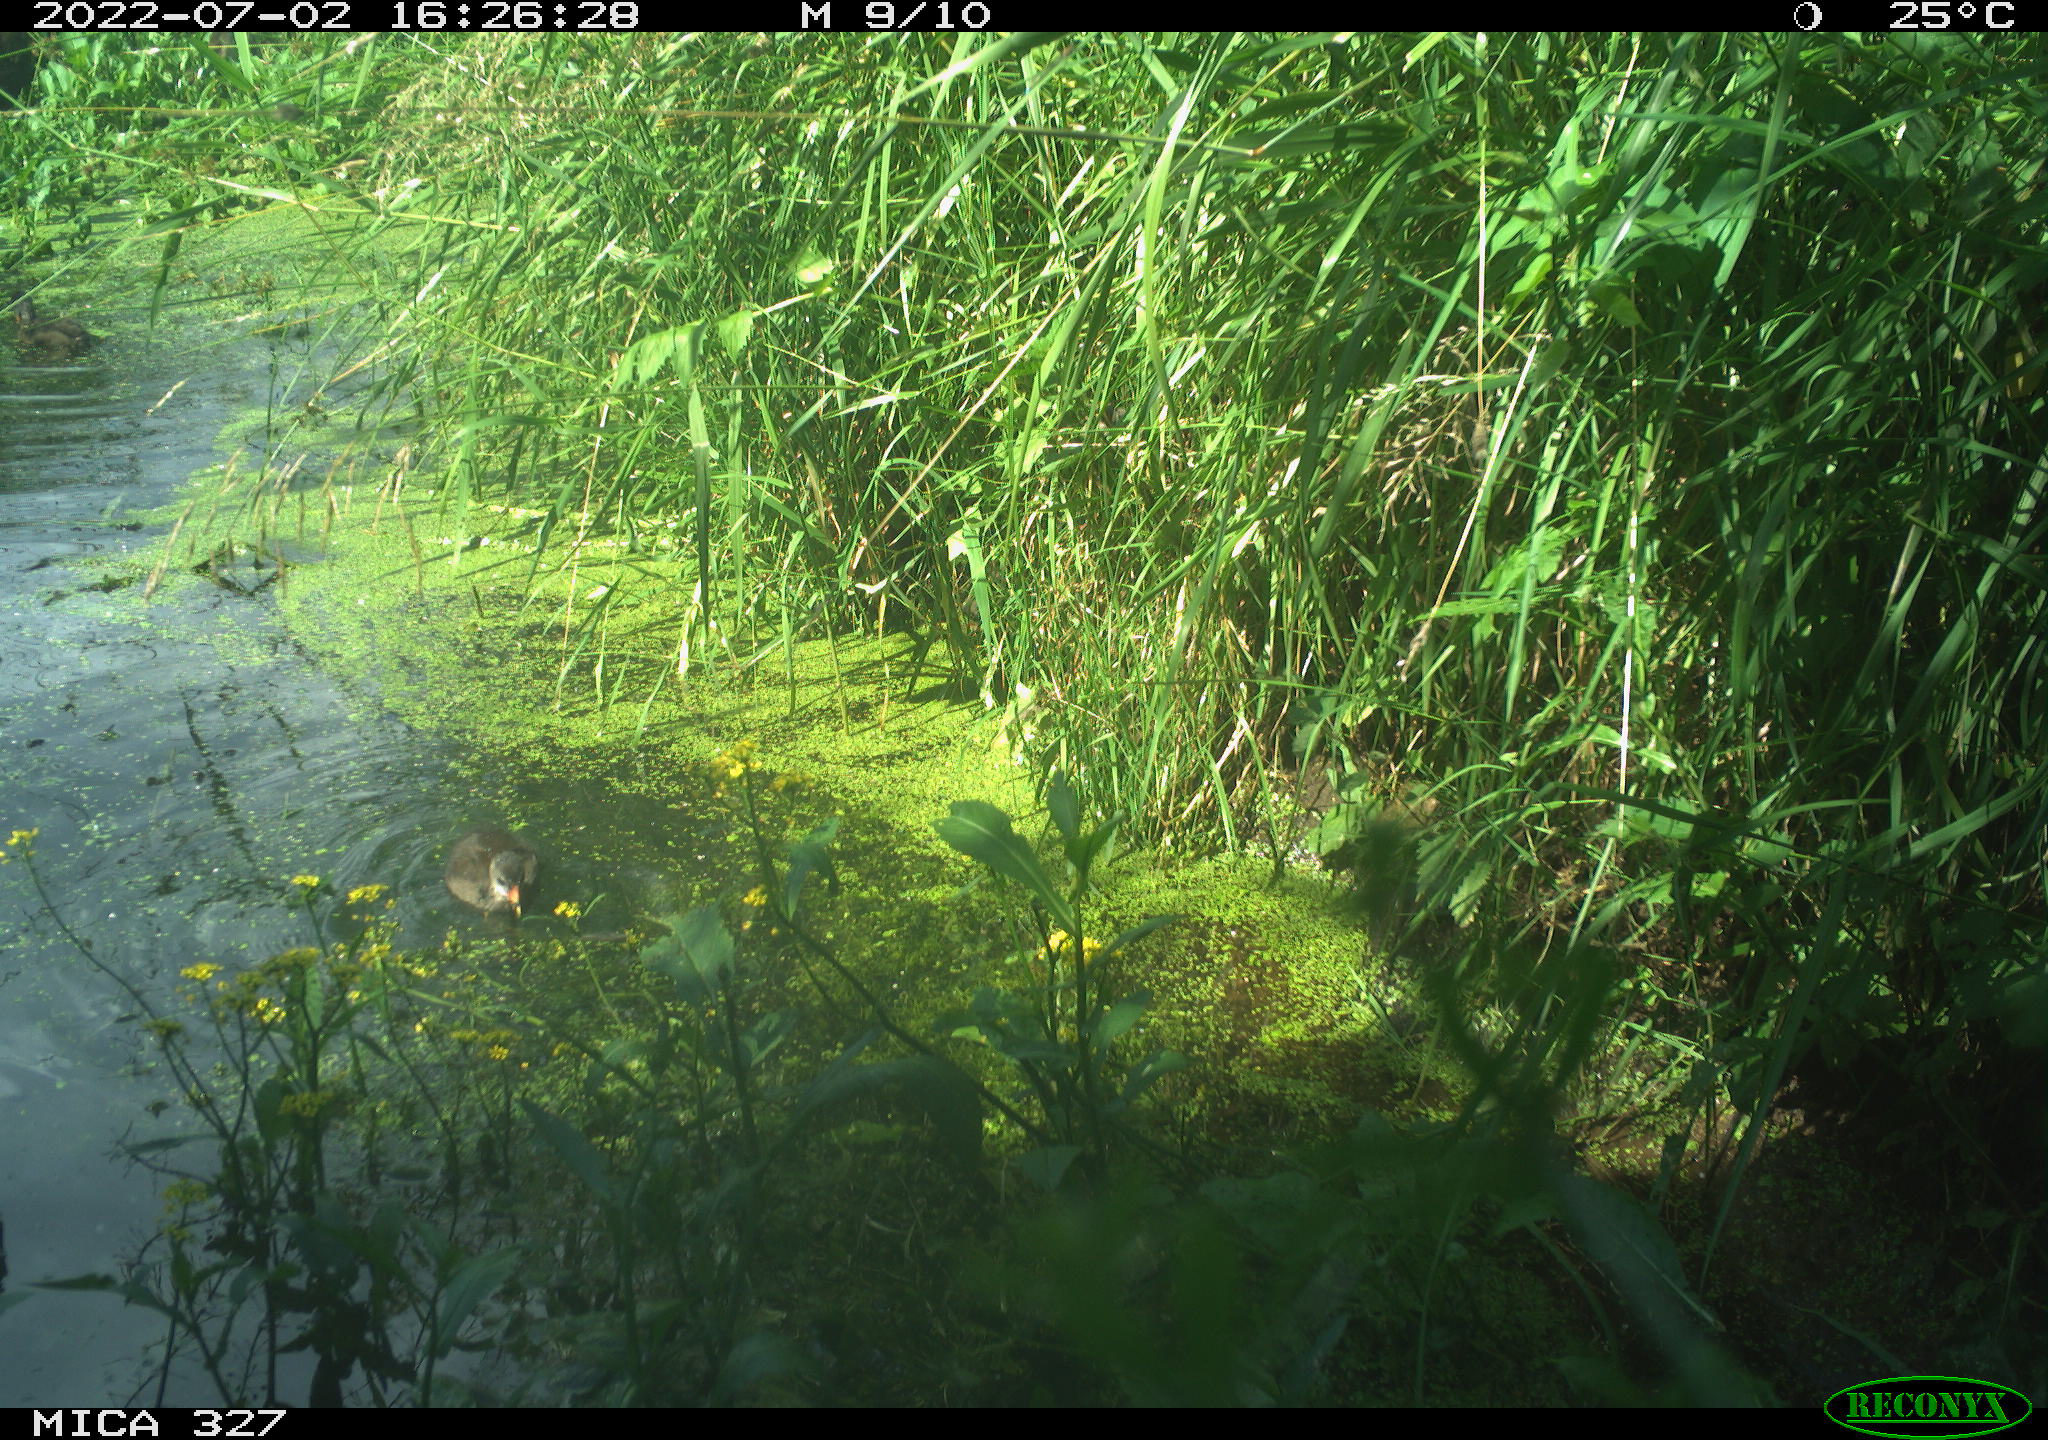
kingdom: Animalia
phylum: Chordata
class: Aves
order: Gruiformes
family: Rallidae
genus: Gallinula
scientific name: Gallinula chloropus
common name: Common moorhen
